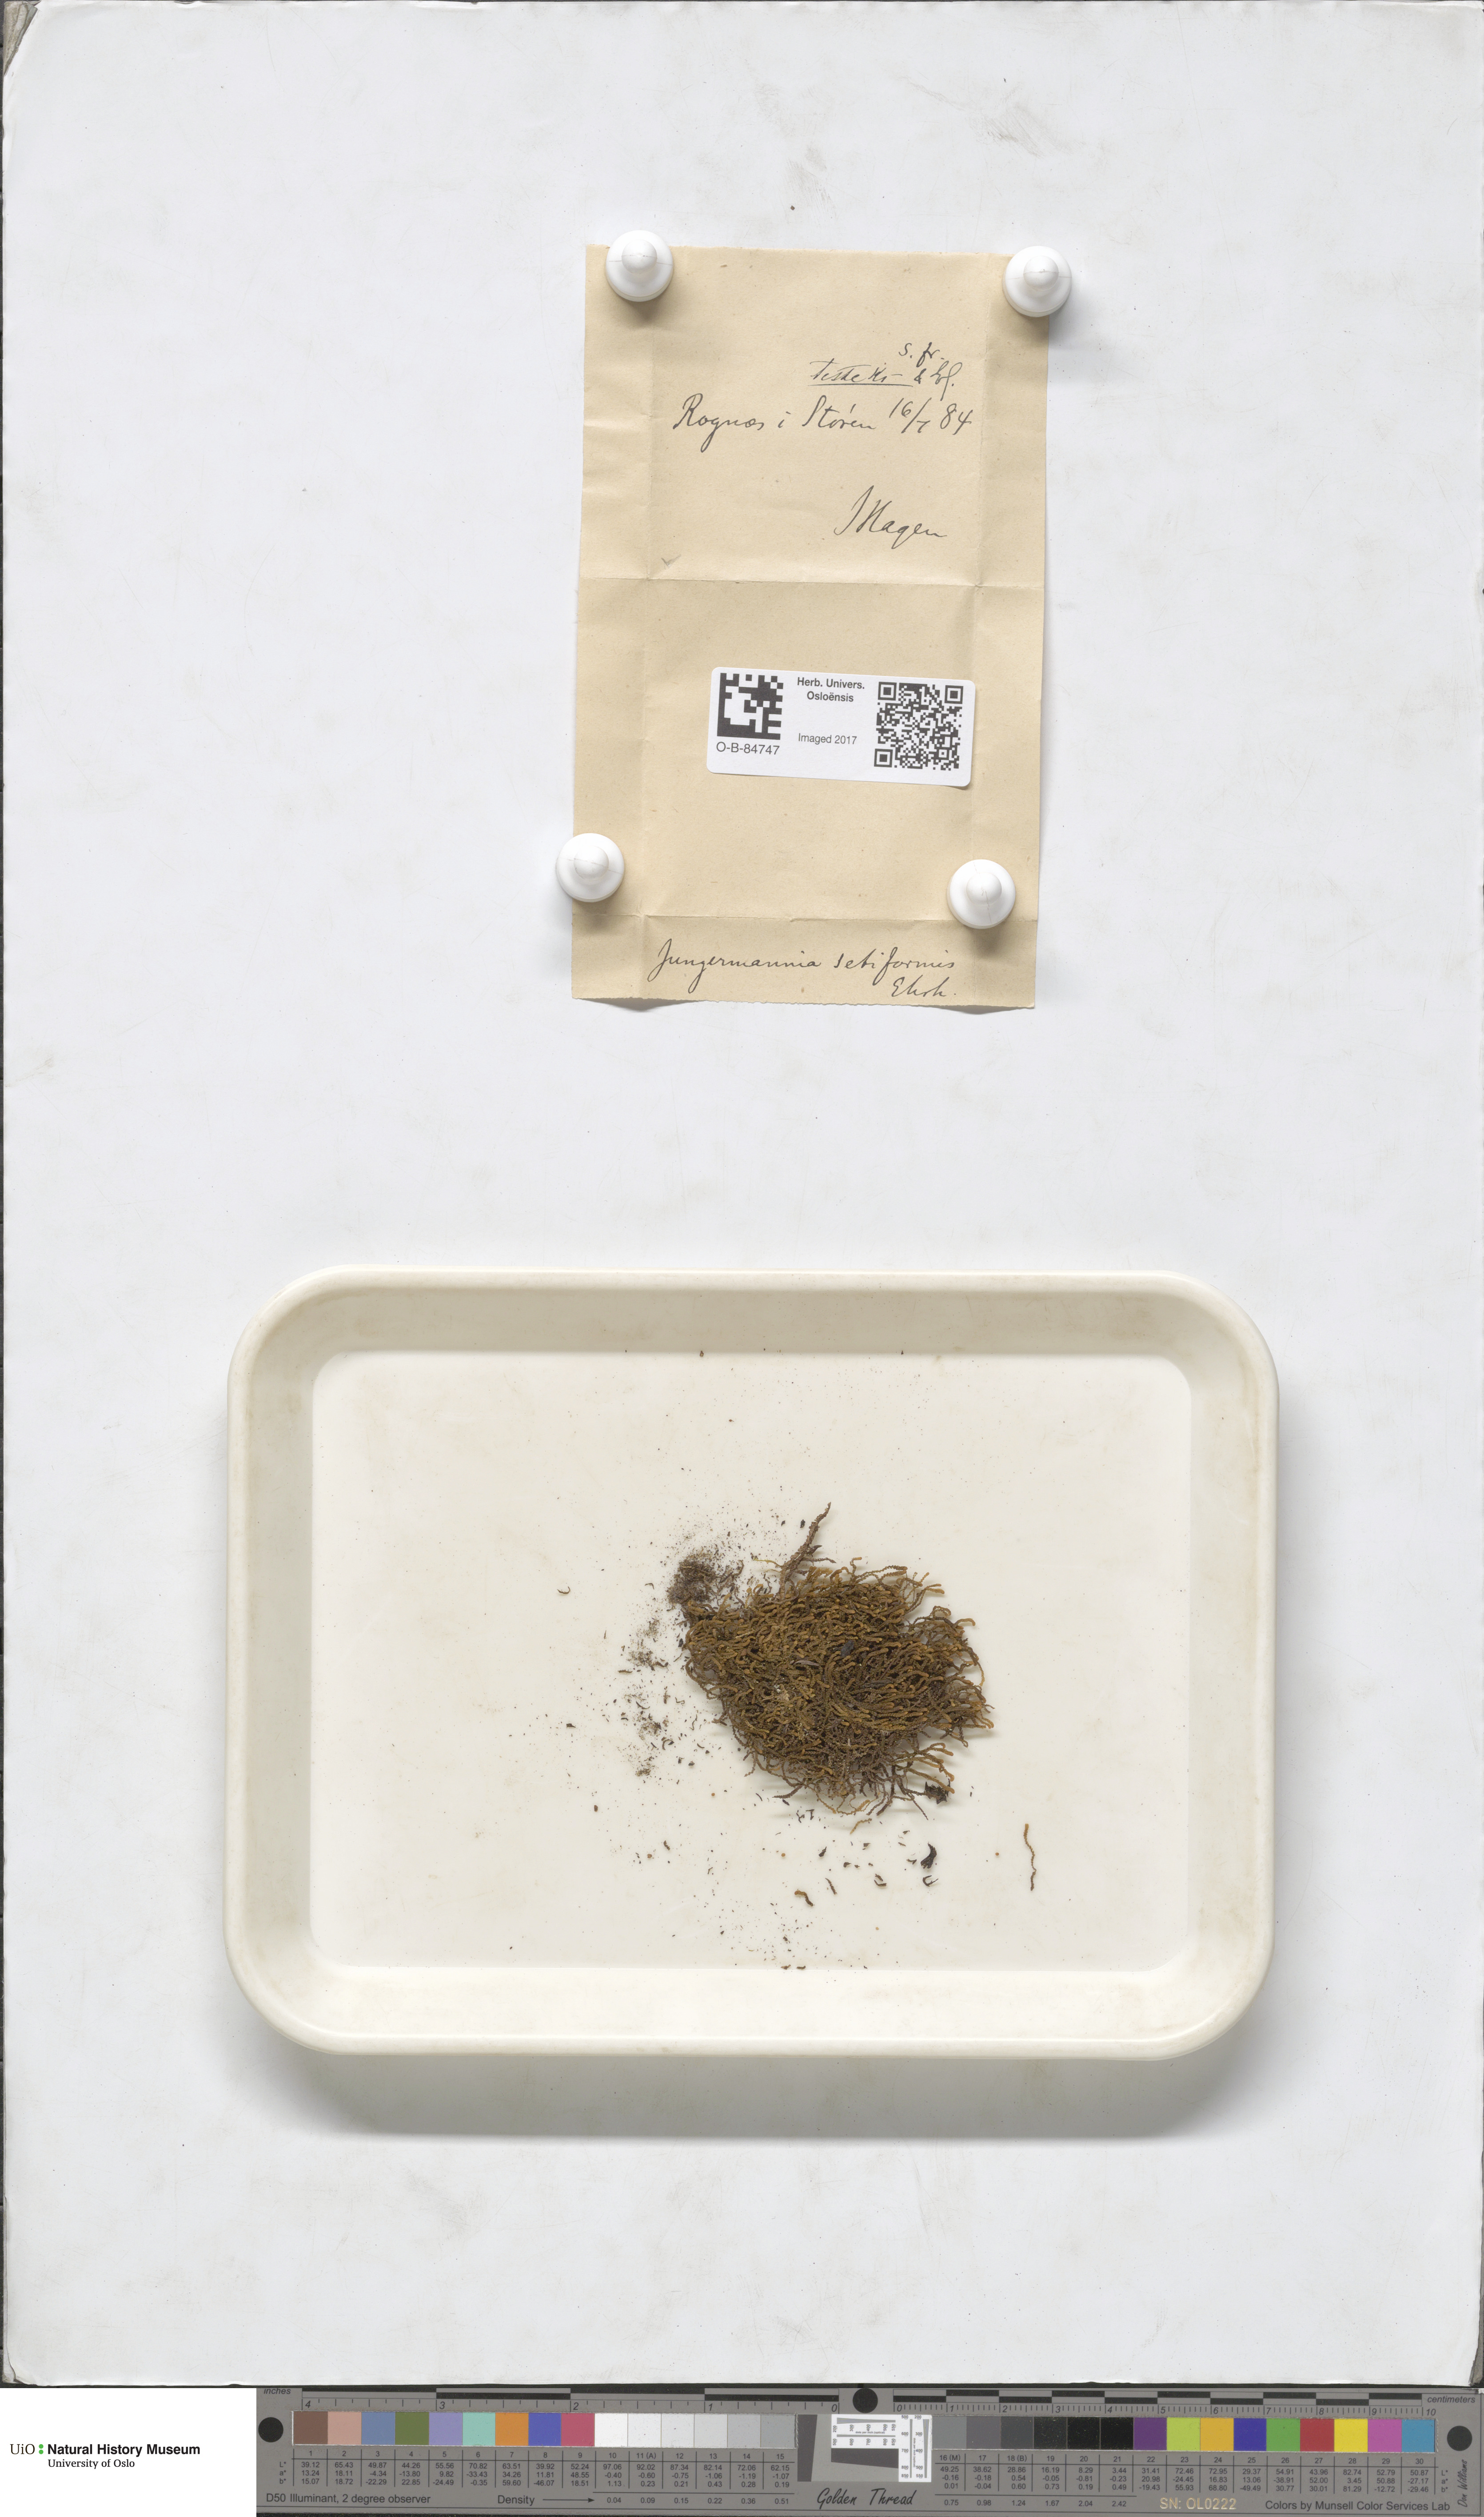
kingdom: Plantae
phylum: Marchantiophyta
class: Jungermanniopsida
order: Jungermanniales
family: Anastrophyllaceae
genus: Tetralophozia
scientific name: Tetralophozia setiformis
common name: Monster pawwort
